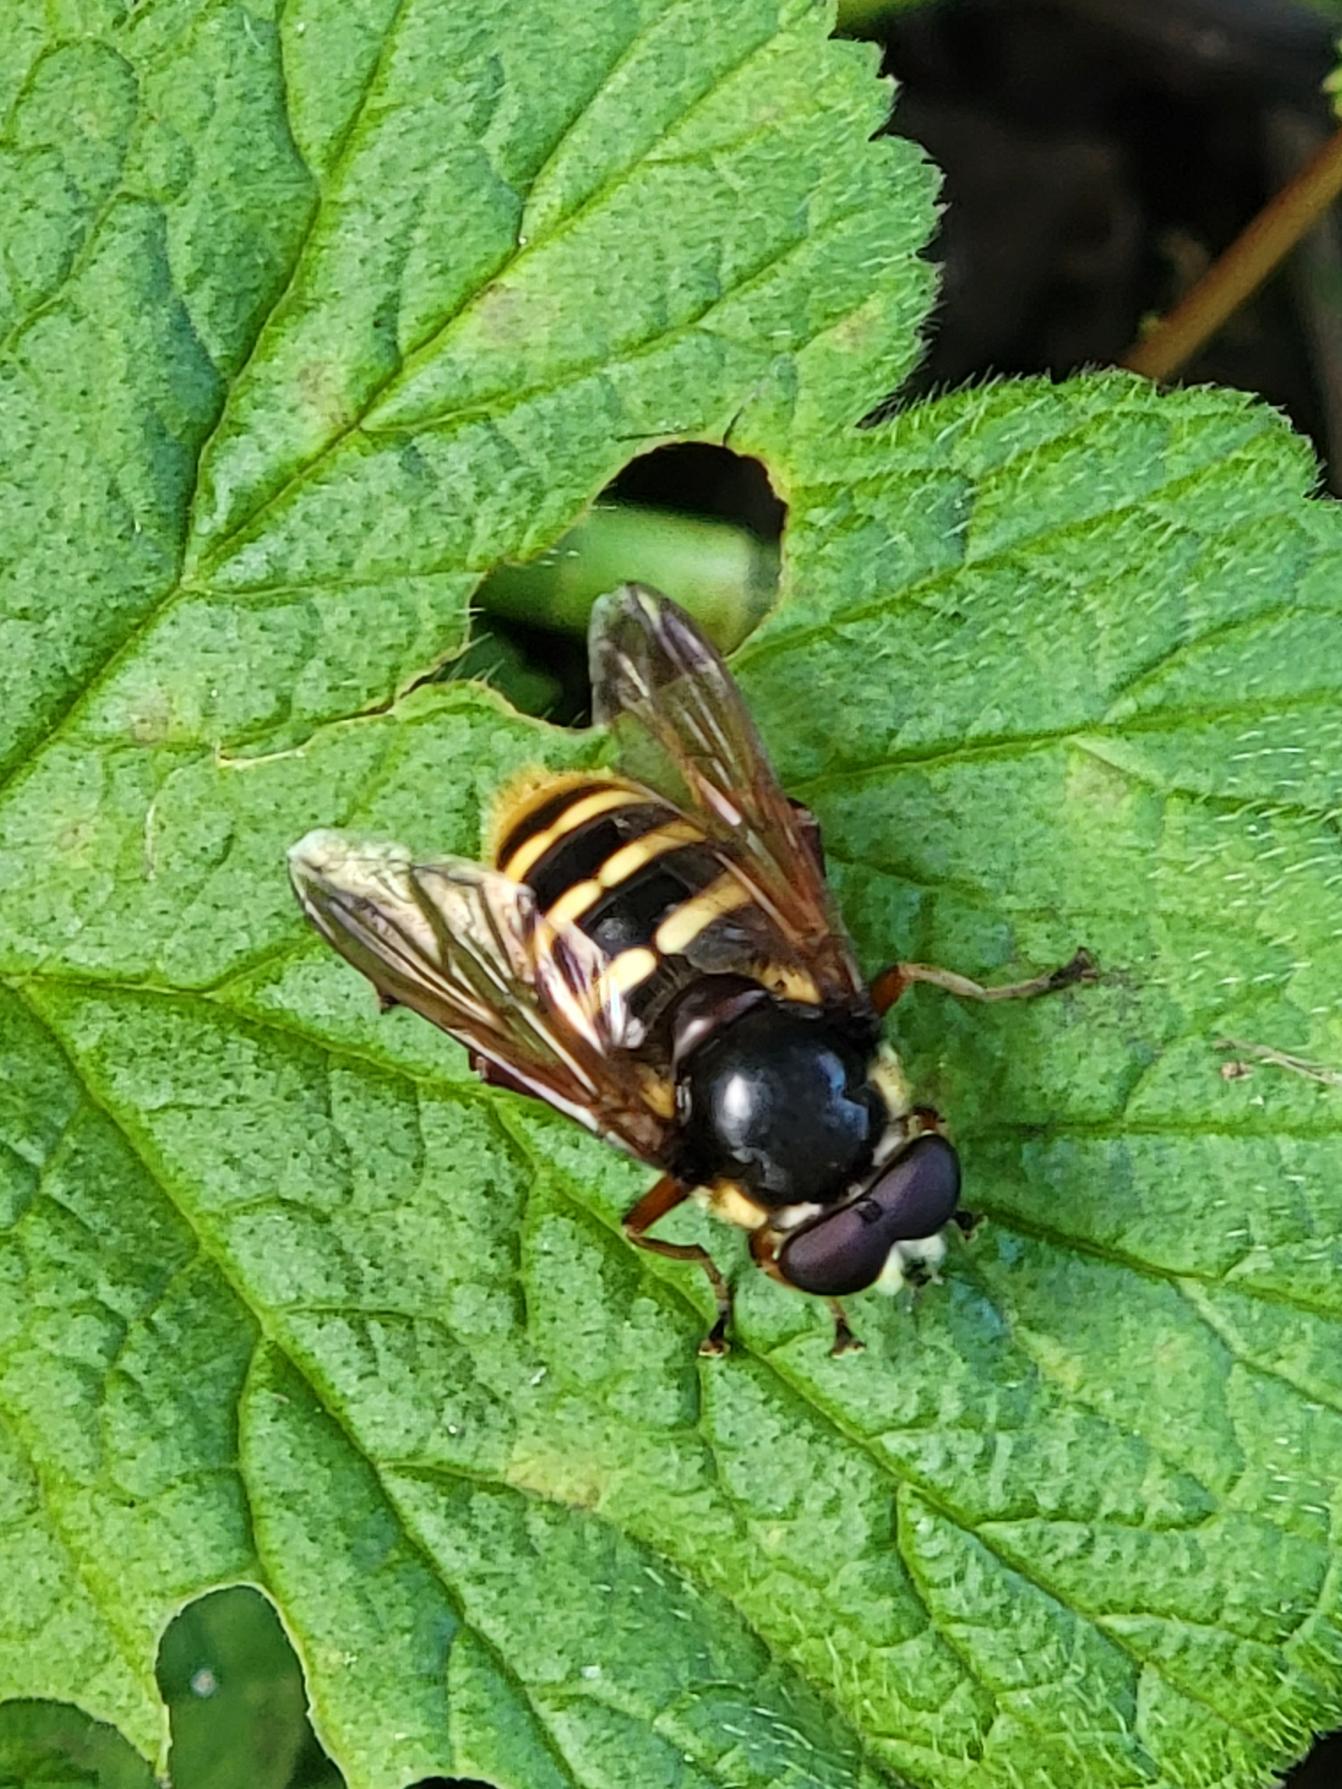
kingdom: Animalia
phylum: Arthropoda
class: Insecta
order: Diptera
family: Syrphidae
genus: Sericomyia
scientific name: Sericomyia silentis
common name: Tørve-silkesvirreflue
